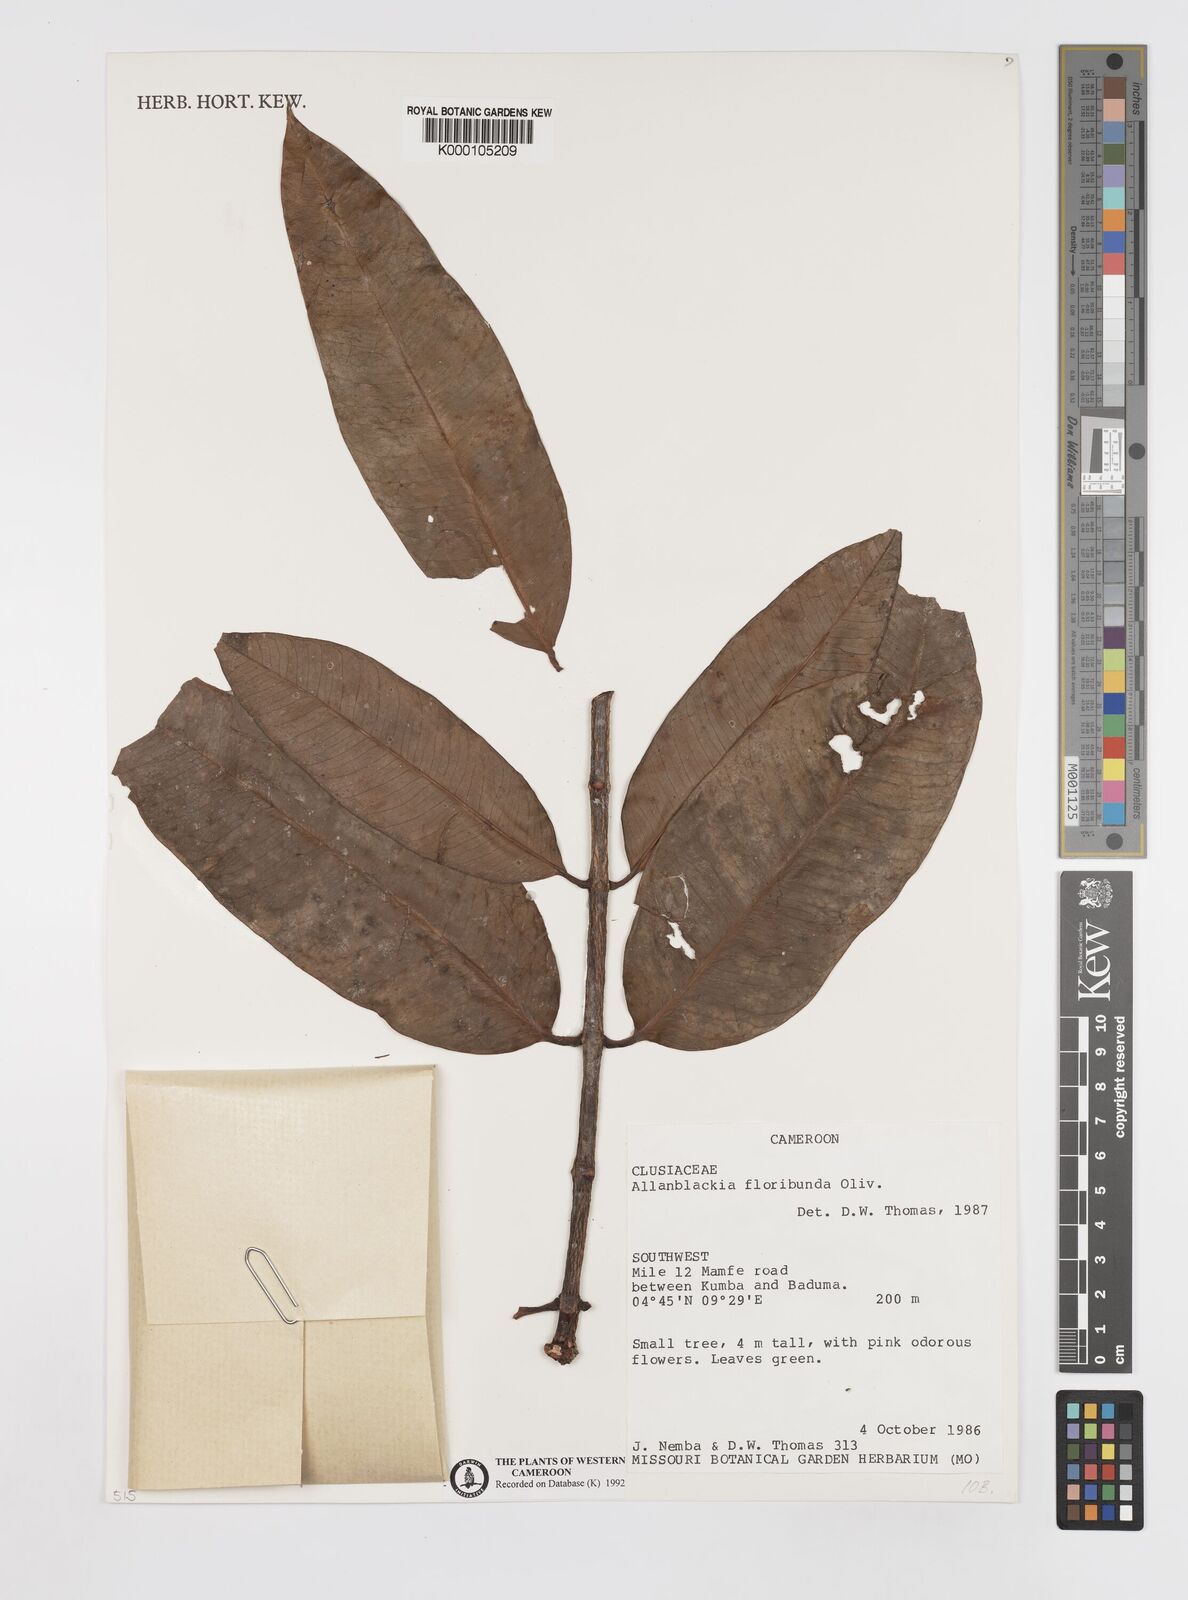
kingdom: Plantae
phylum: Tracheophyta
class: Magnoliopsida
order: Malpighiales
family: Clusiaceae
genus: Allanblackia
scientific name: Allanblackia floribunda
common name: Tallow tree
